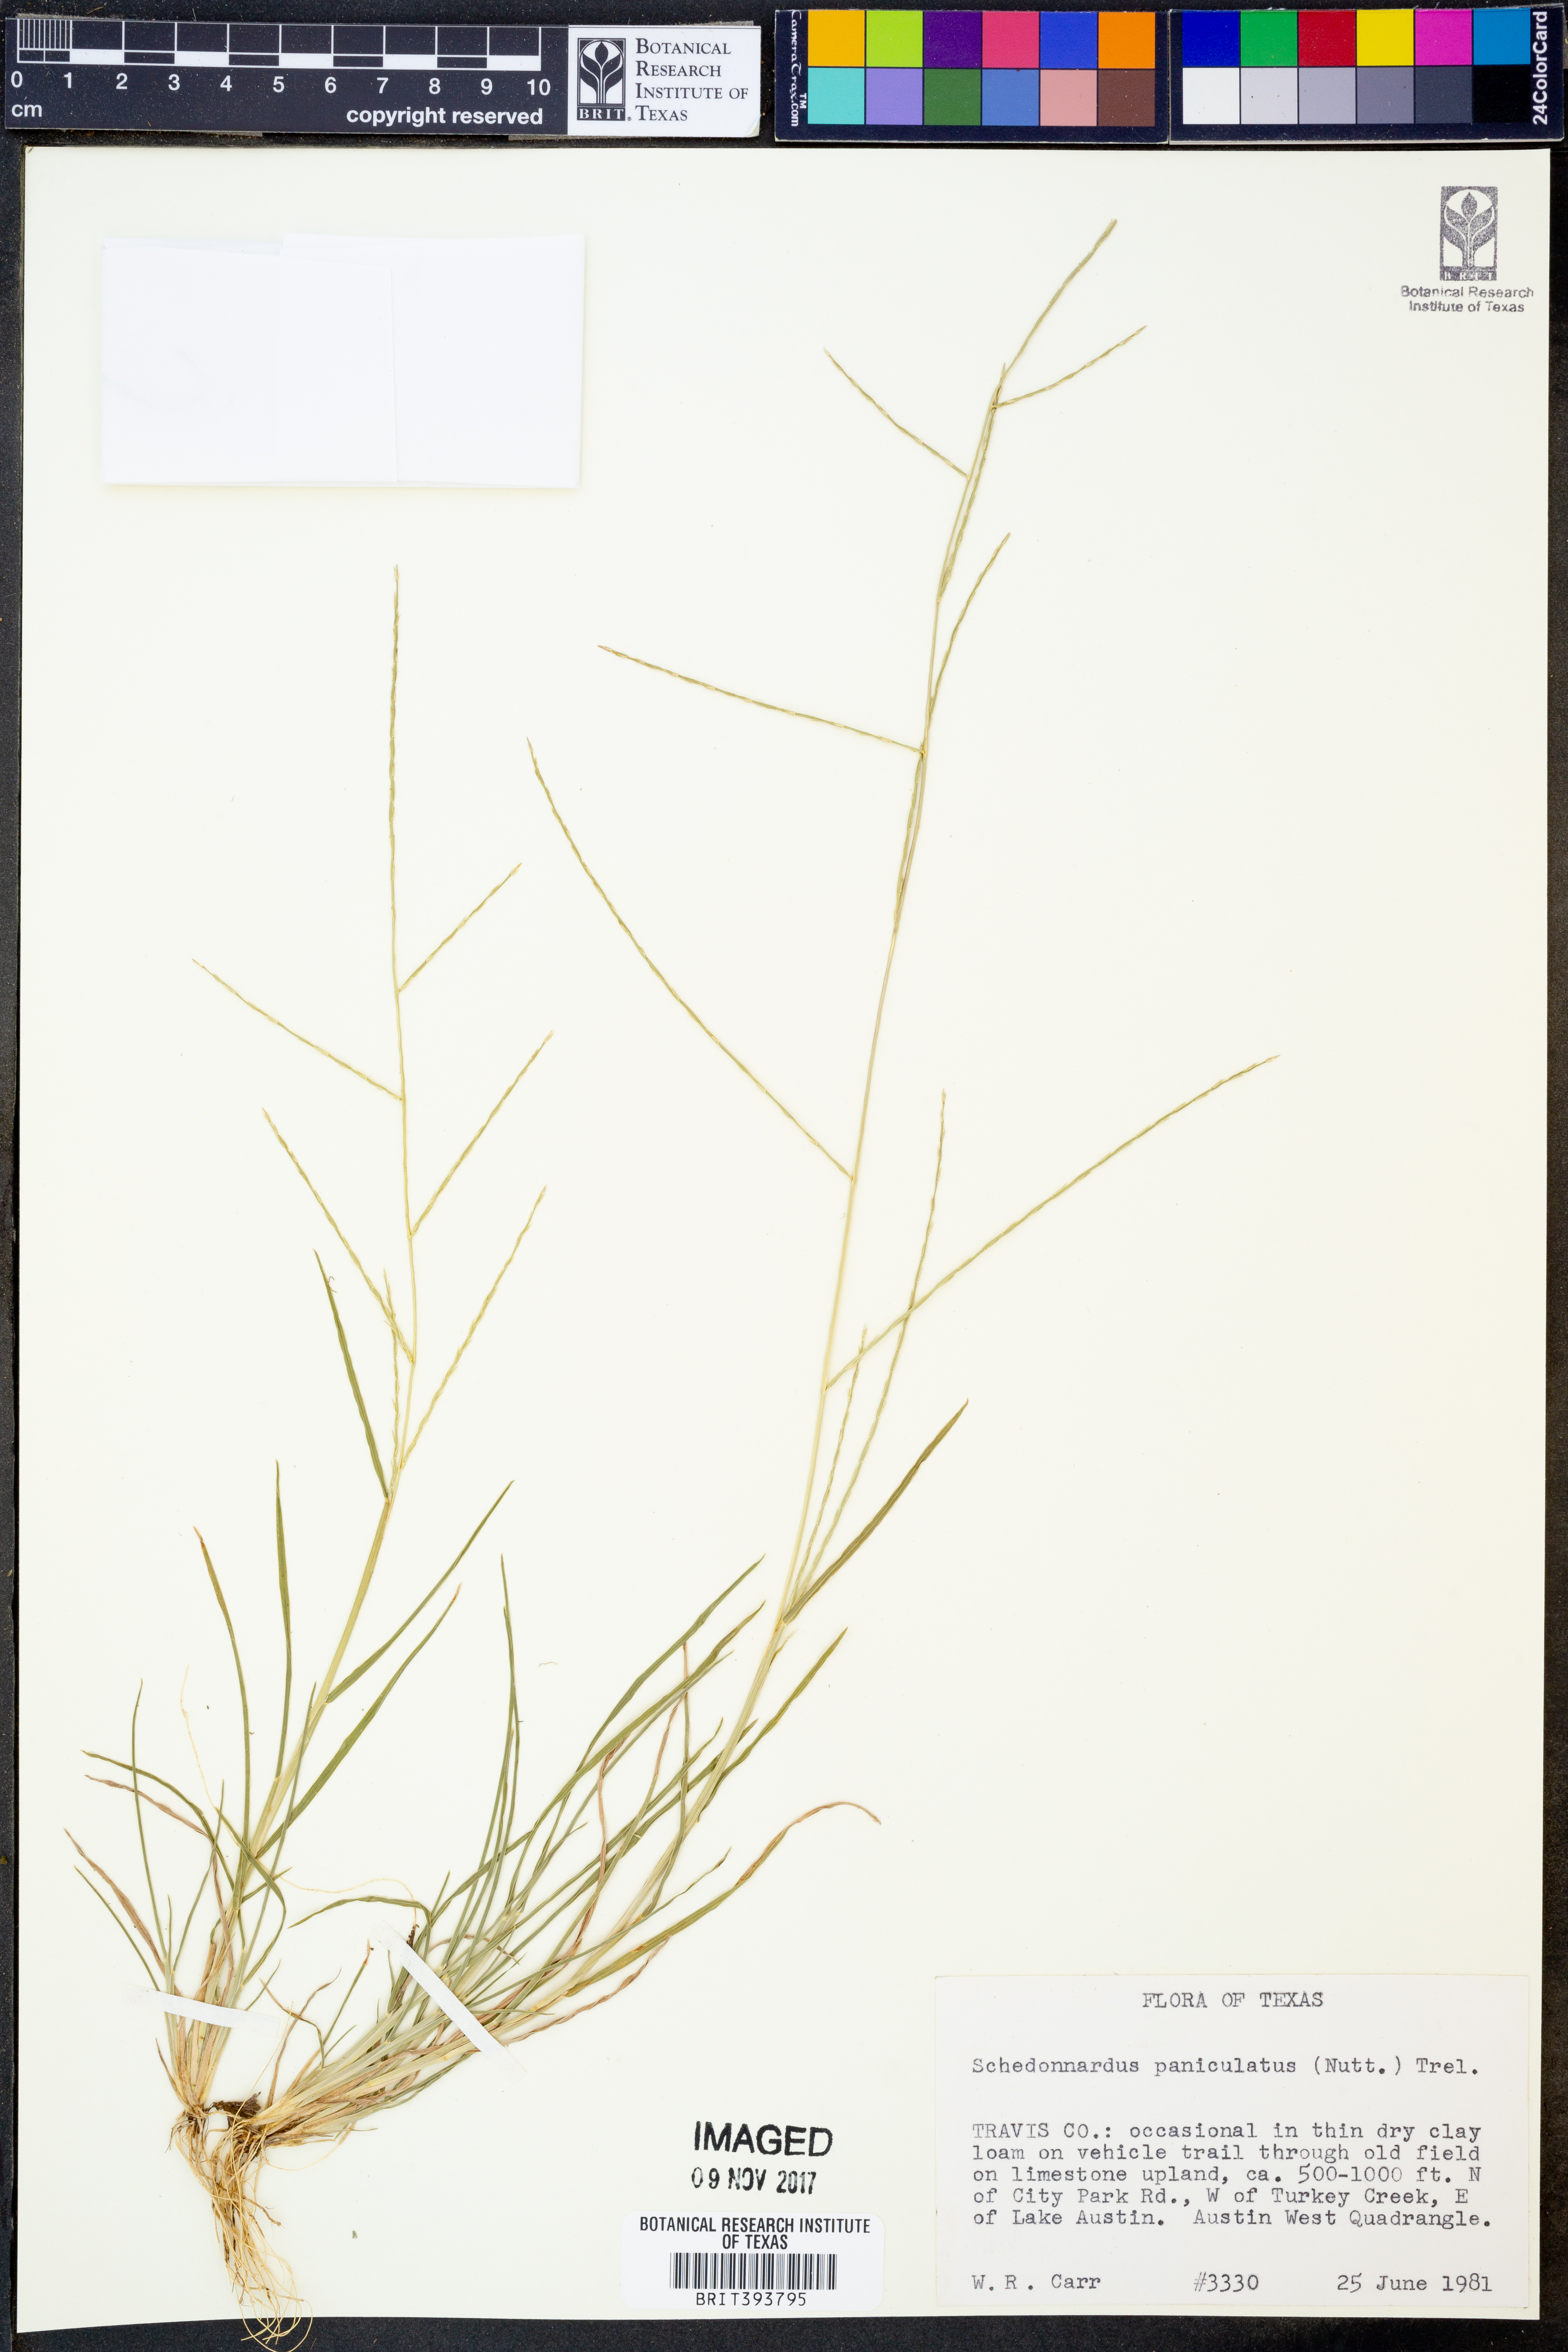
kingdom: Plantae
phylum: Tracheophyta
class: Liliopsida
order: Poales
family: Poaceae
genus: Muhlenbergia
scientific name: Muhlenbergia paniculata
